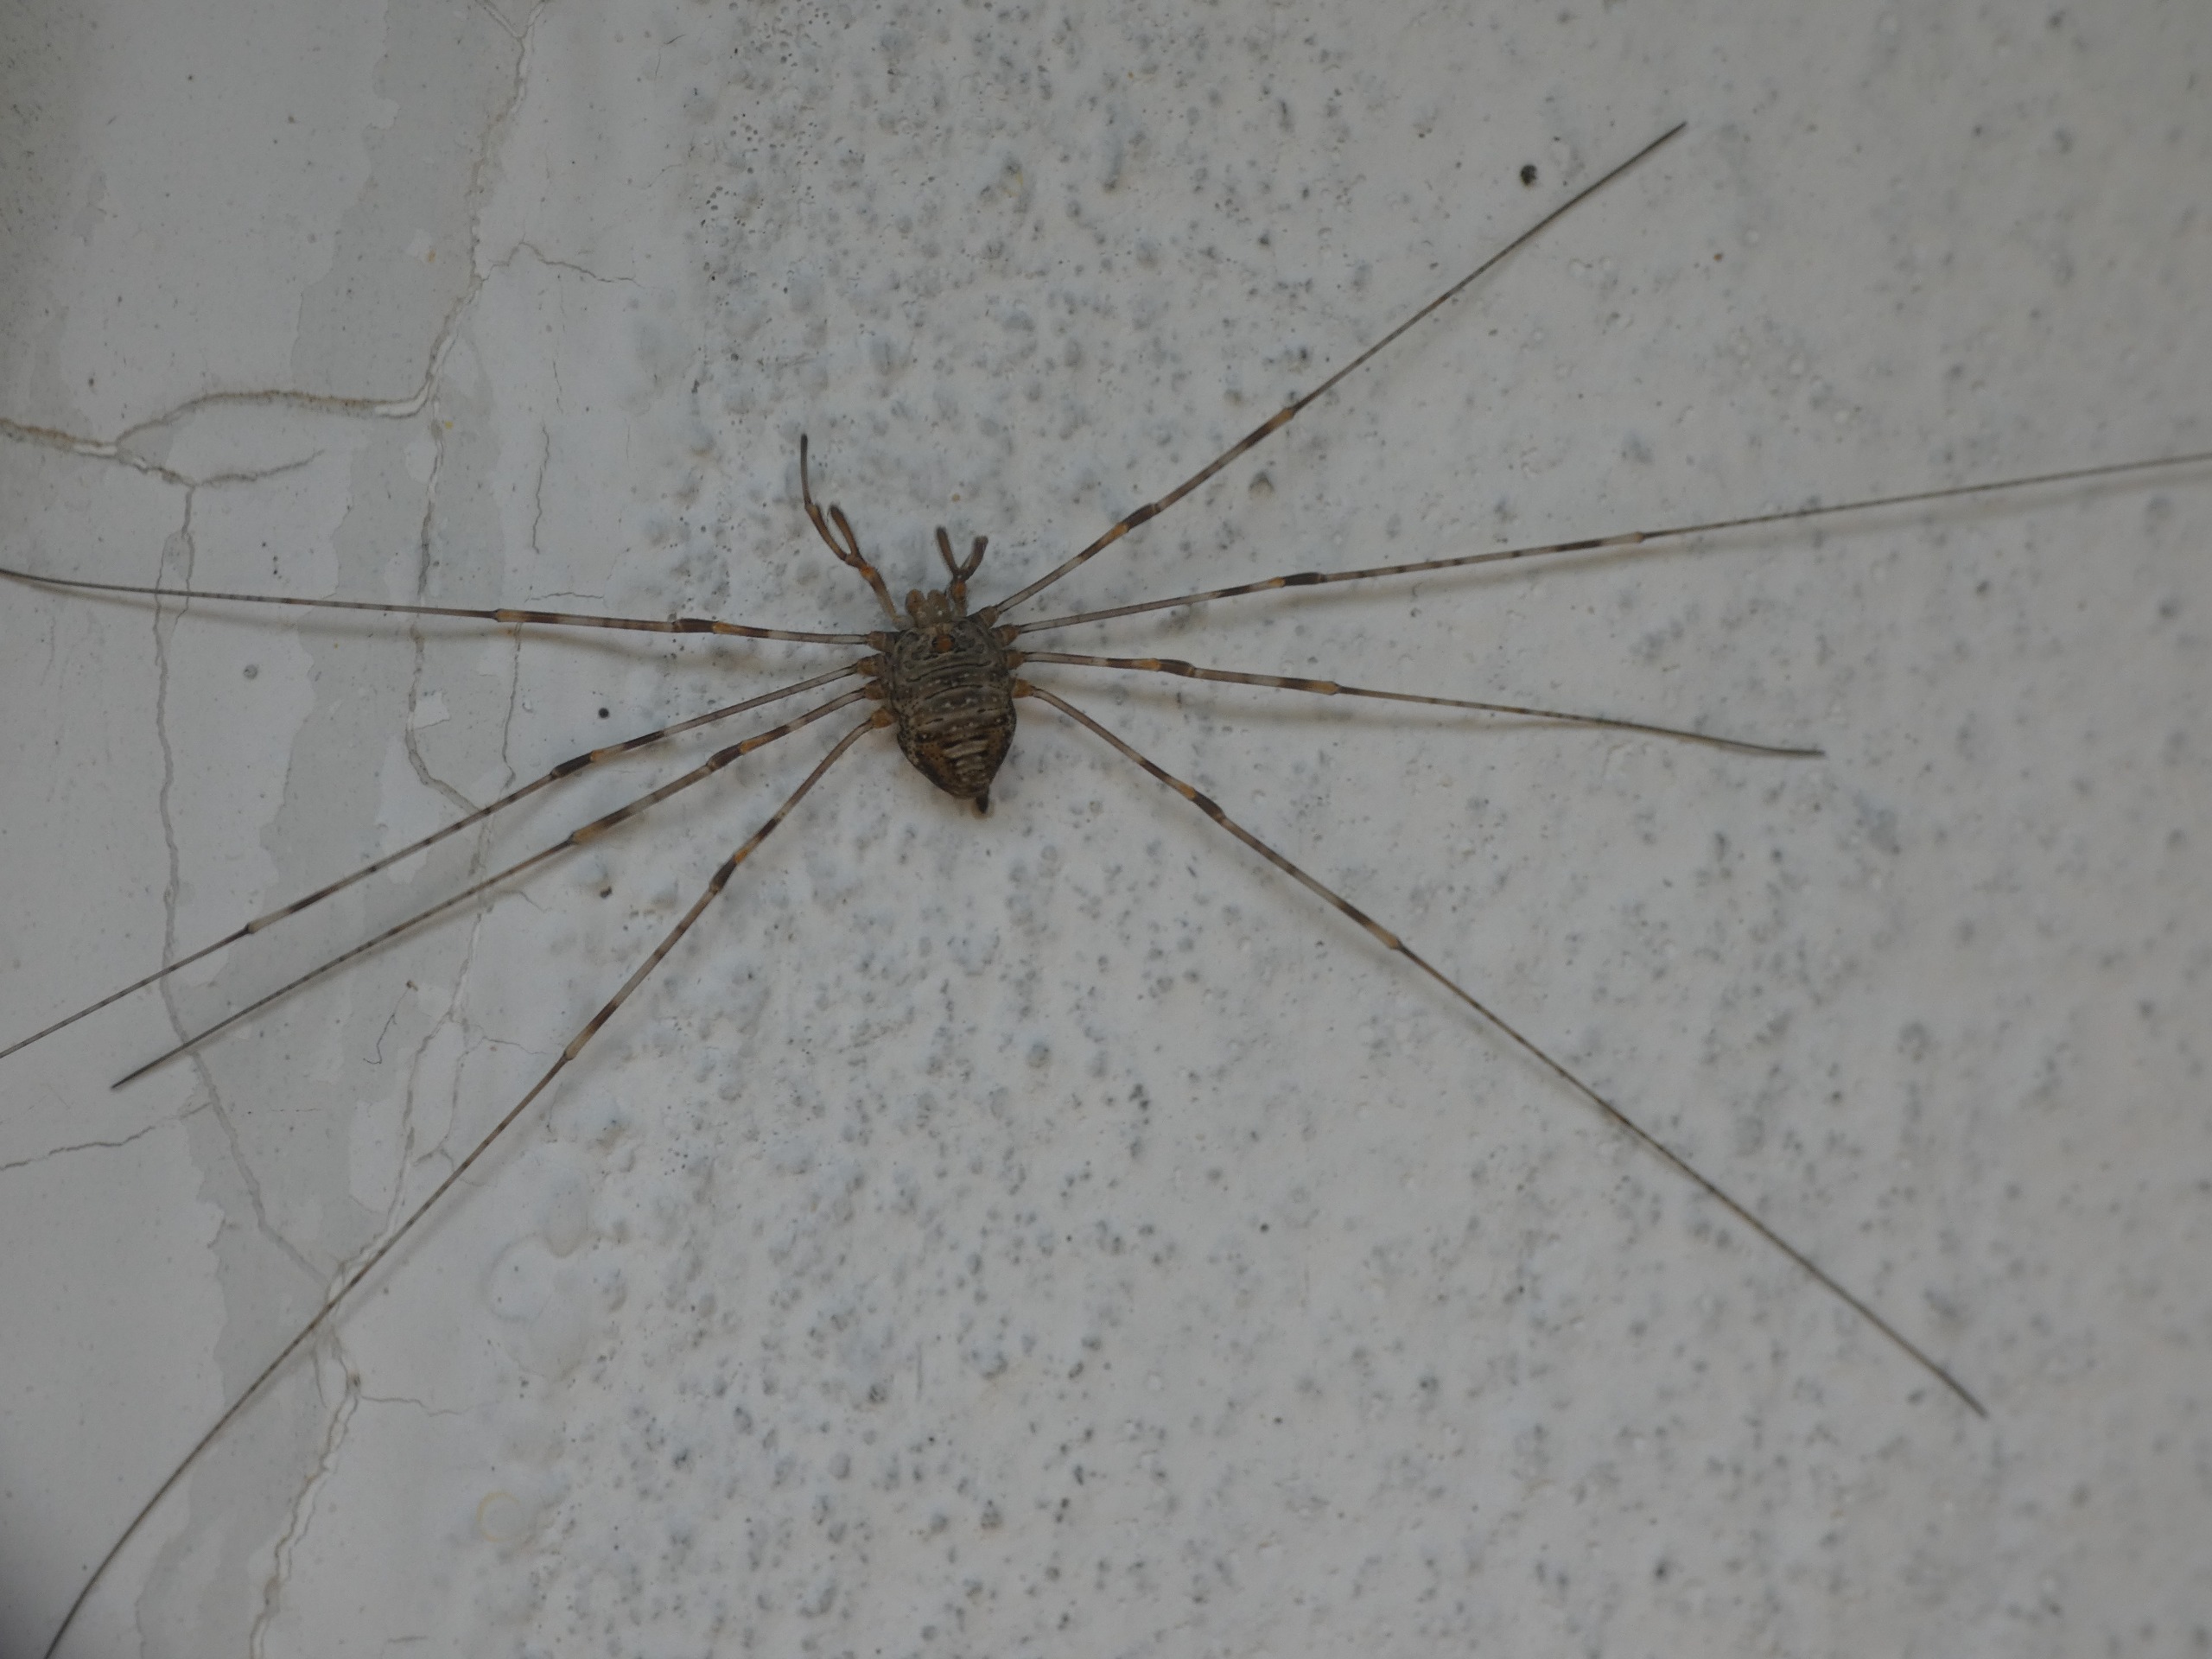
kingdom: Animalia
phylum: Arthropoda
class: Arachnida
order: Opiliones
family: Phalangiidae
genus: Dicranopalpus
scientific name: Dicranopalpus ramosus
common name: Gaffelmejer
